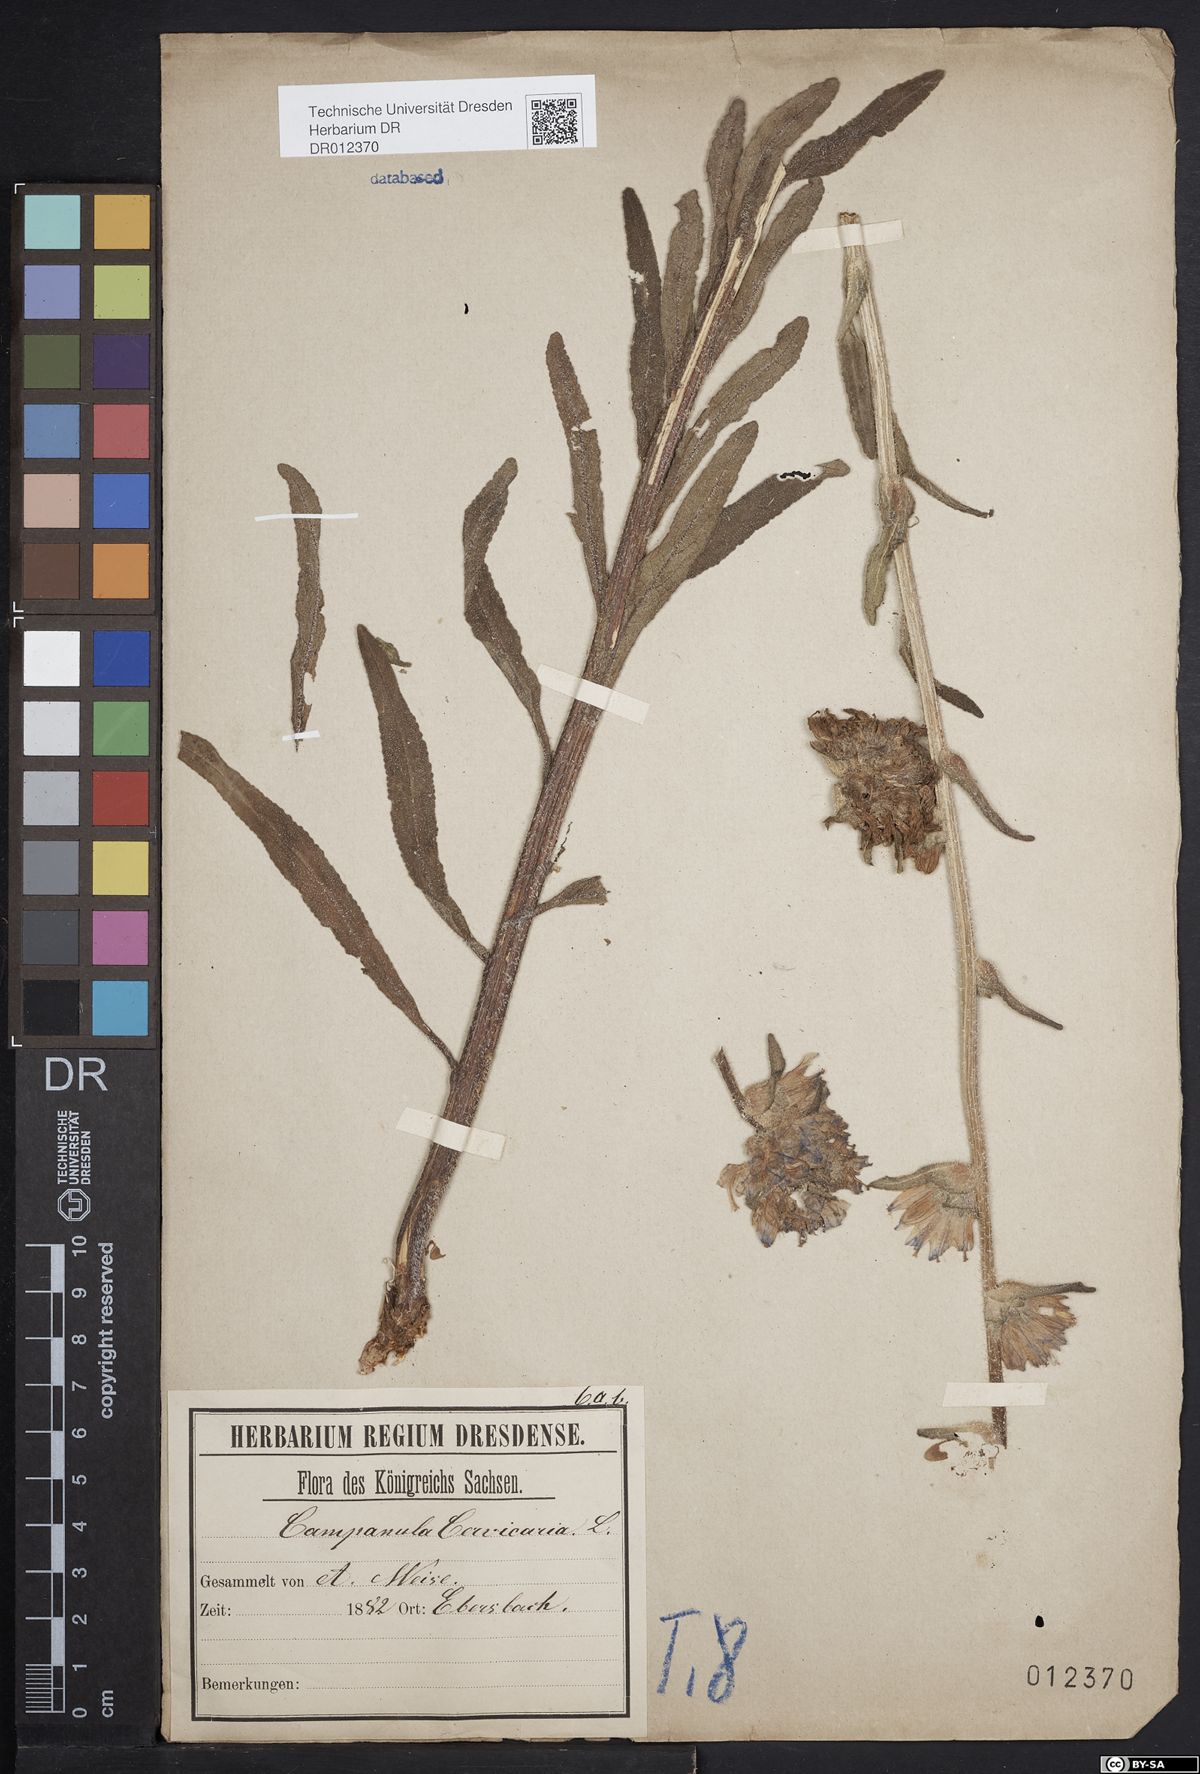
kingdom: Plantae
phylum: Tracheophyta
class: Magnoliopsida
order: Asterales
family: Campanulaceae
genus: Campanula
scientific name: Campanula cervicaria
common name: Bristly bellflower
